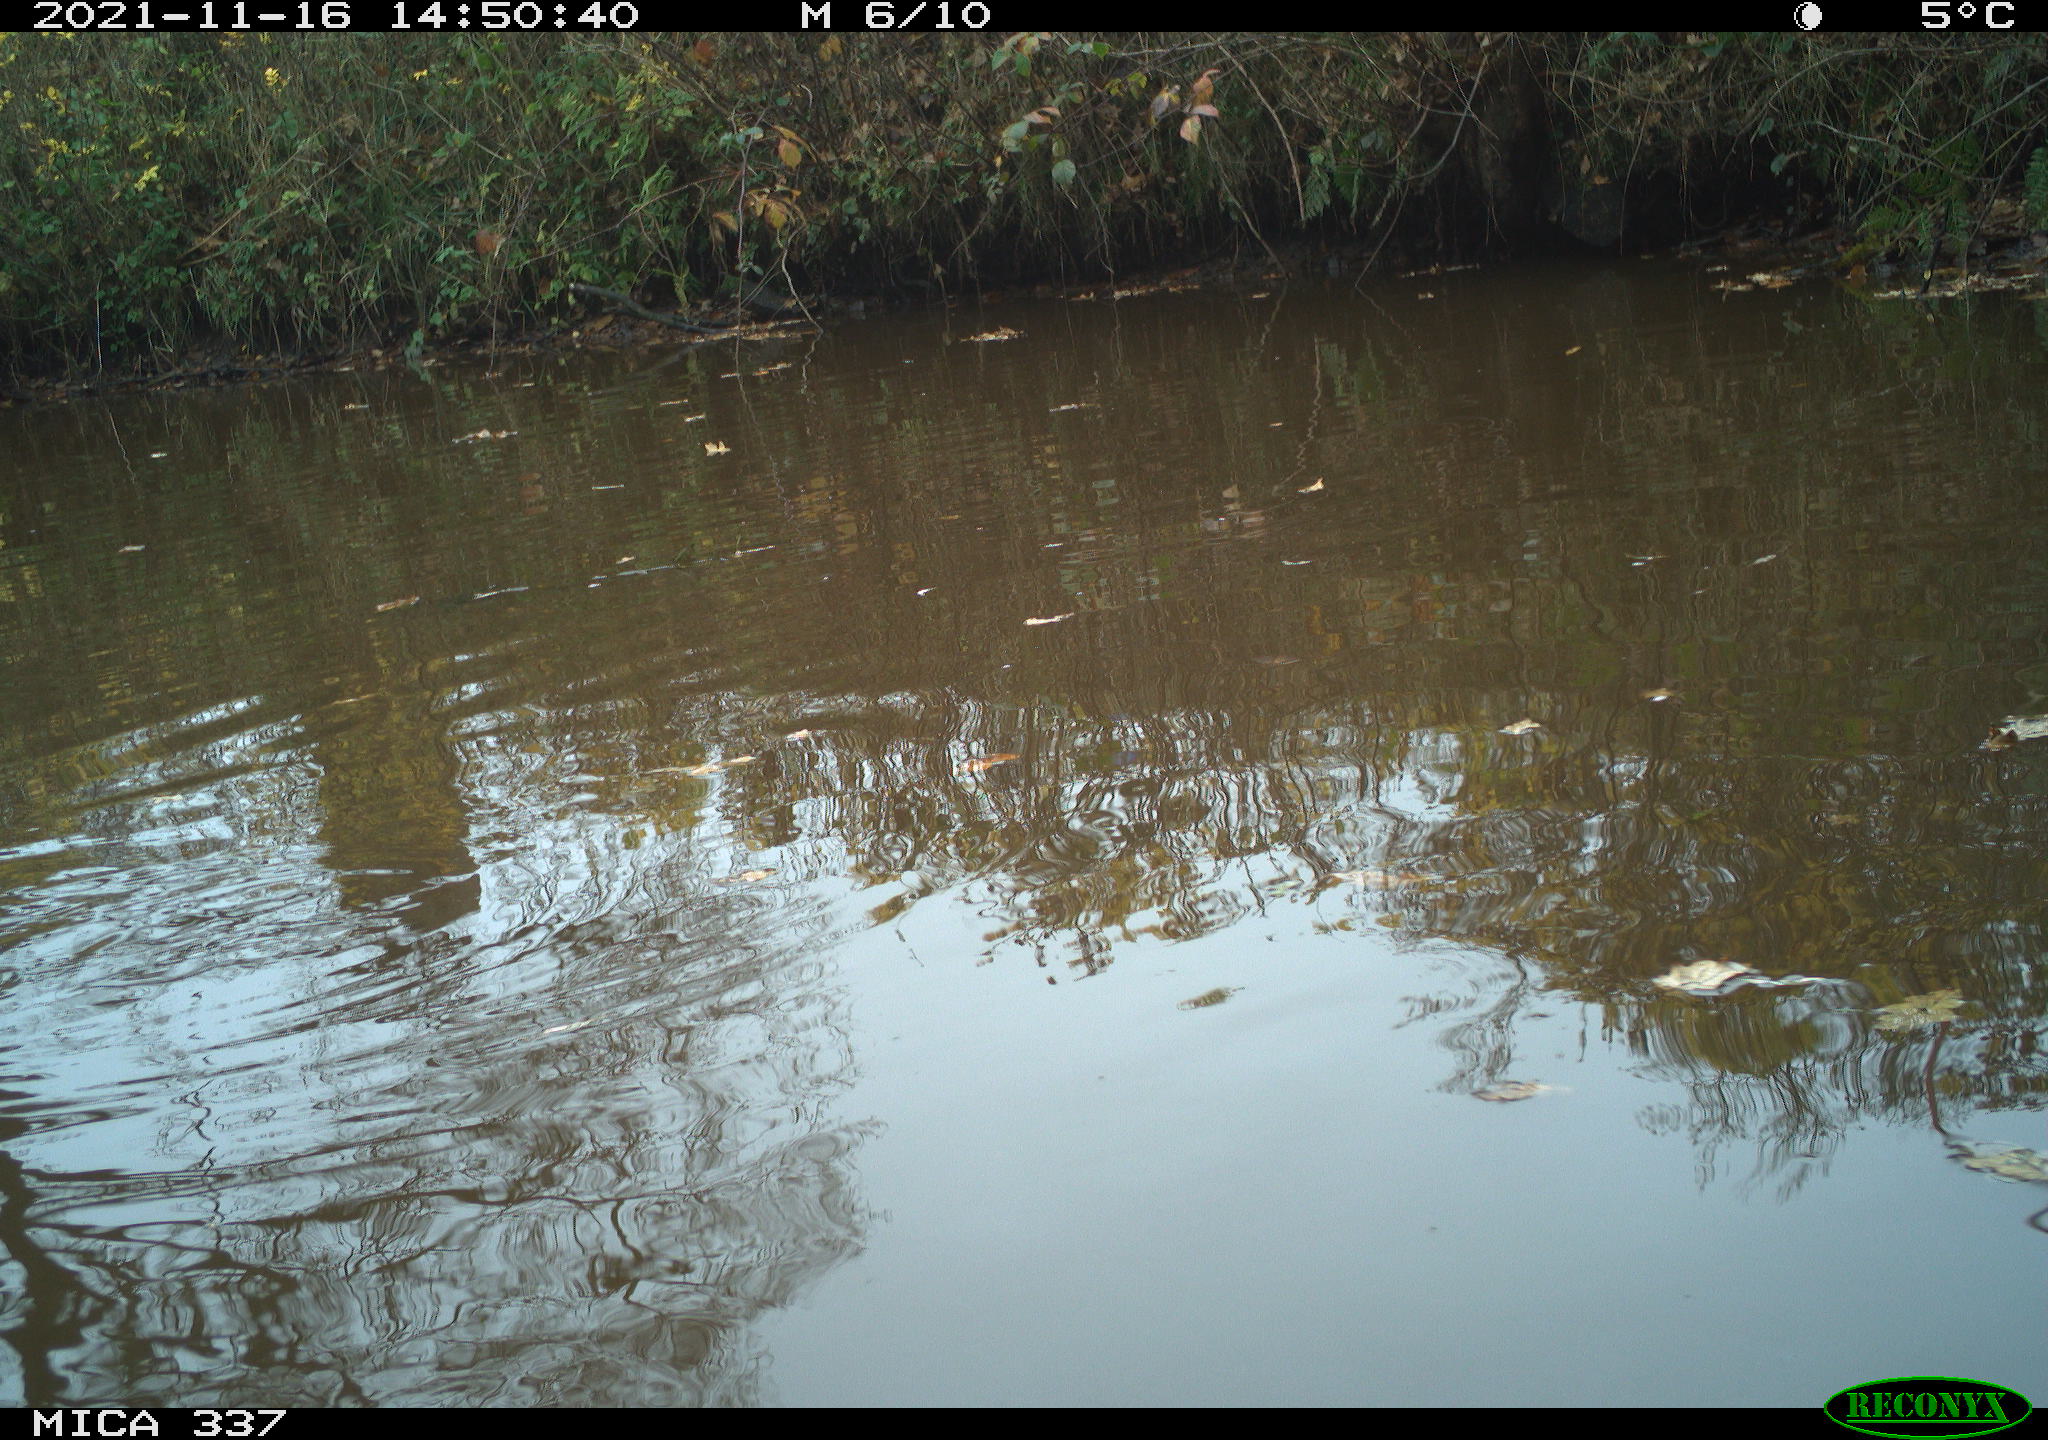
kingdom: Animalia
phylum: Chordata
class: Aves
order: Anseriformes
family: Anatidae
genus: Anas
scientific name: Anas platyrhynchos
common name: Mallard
